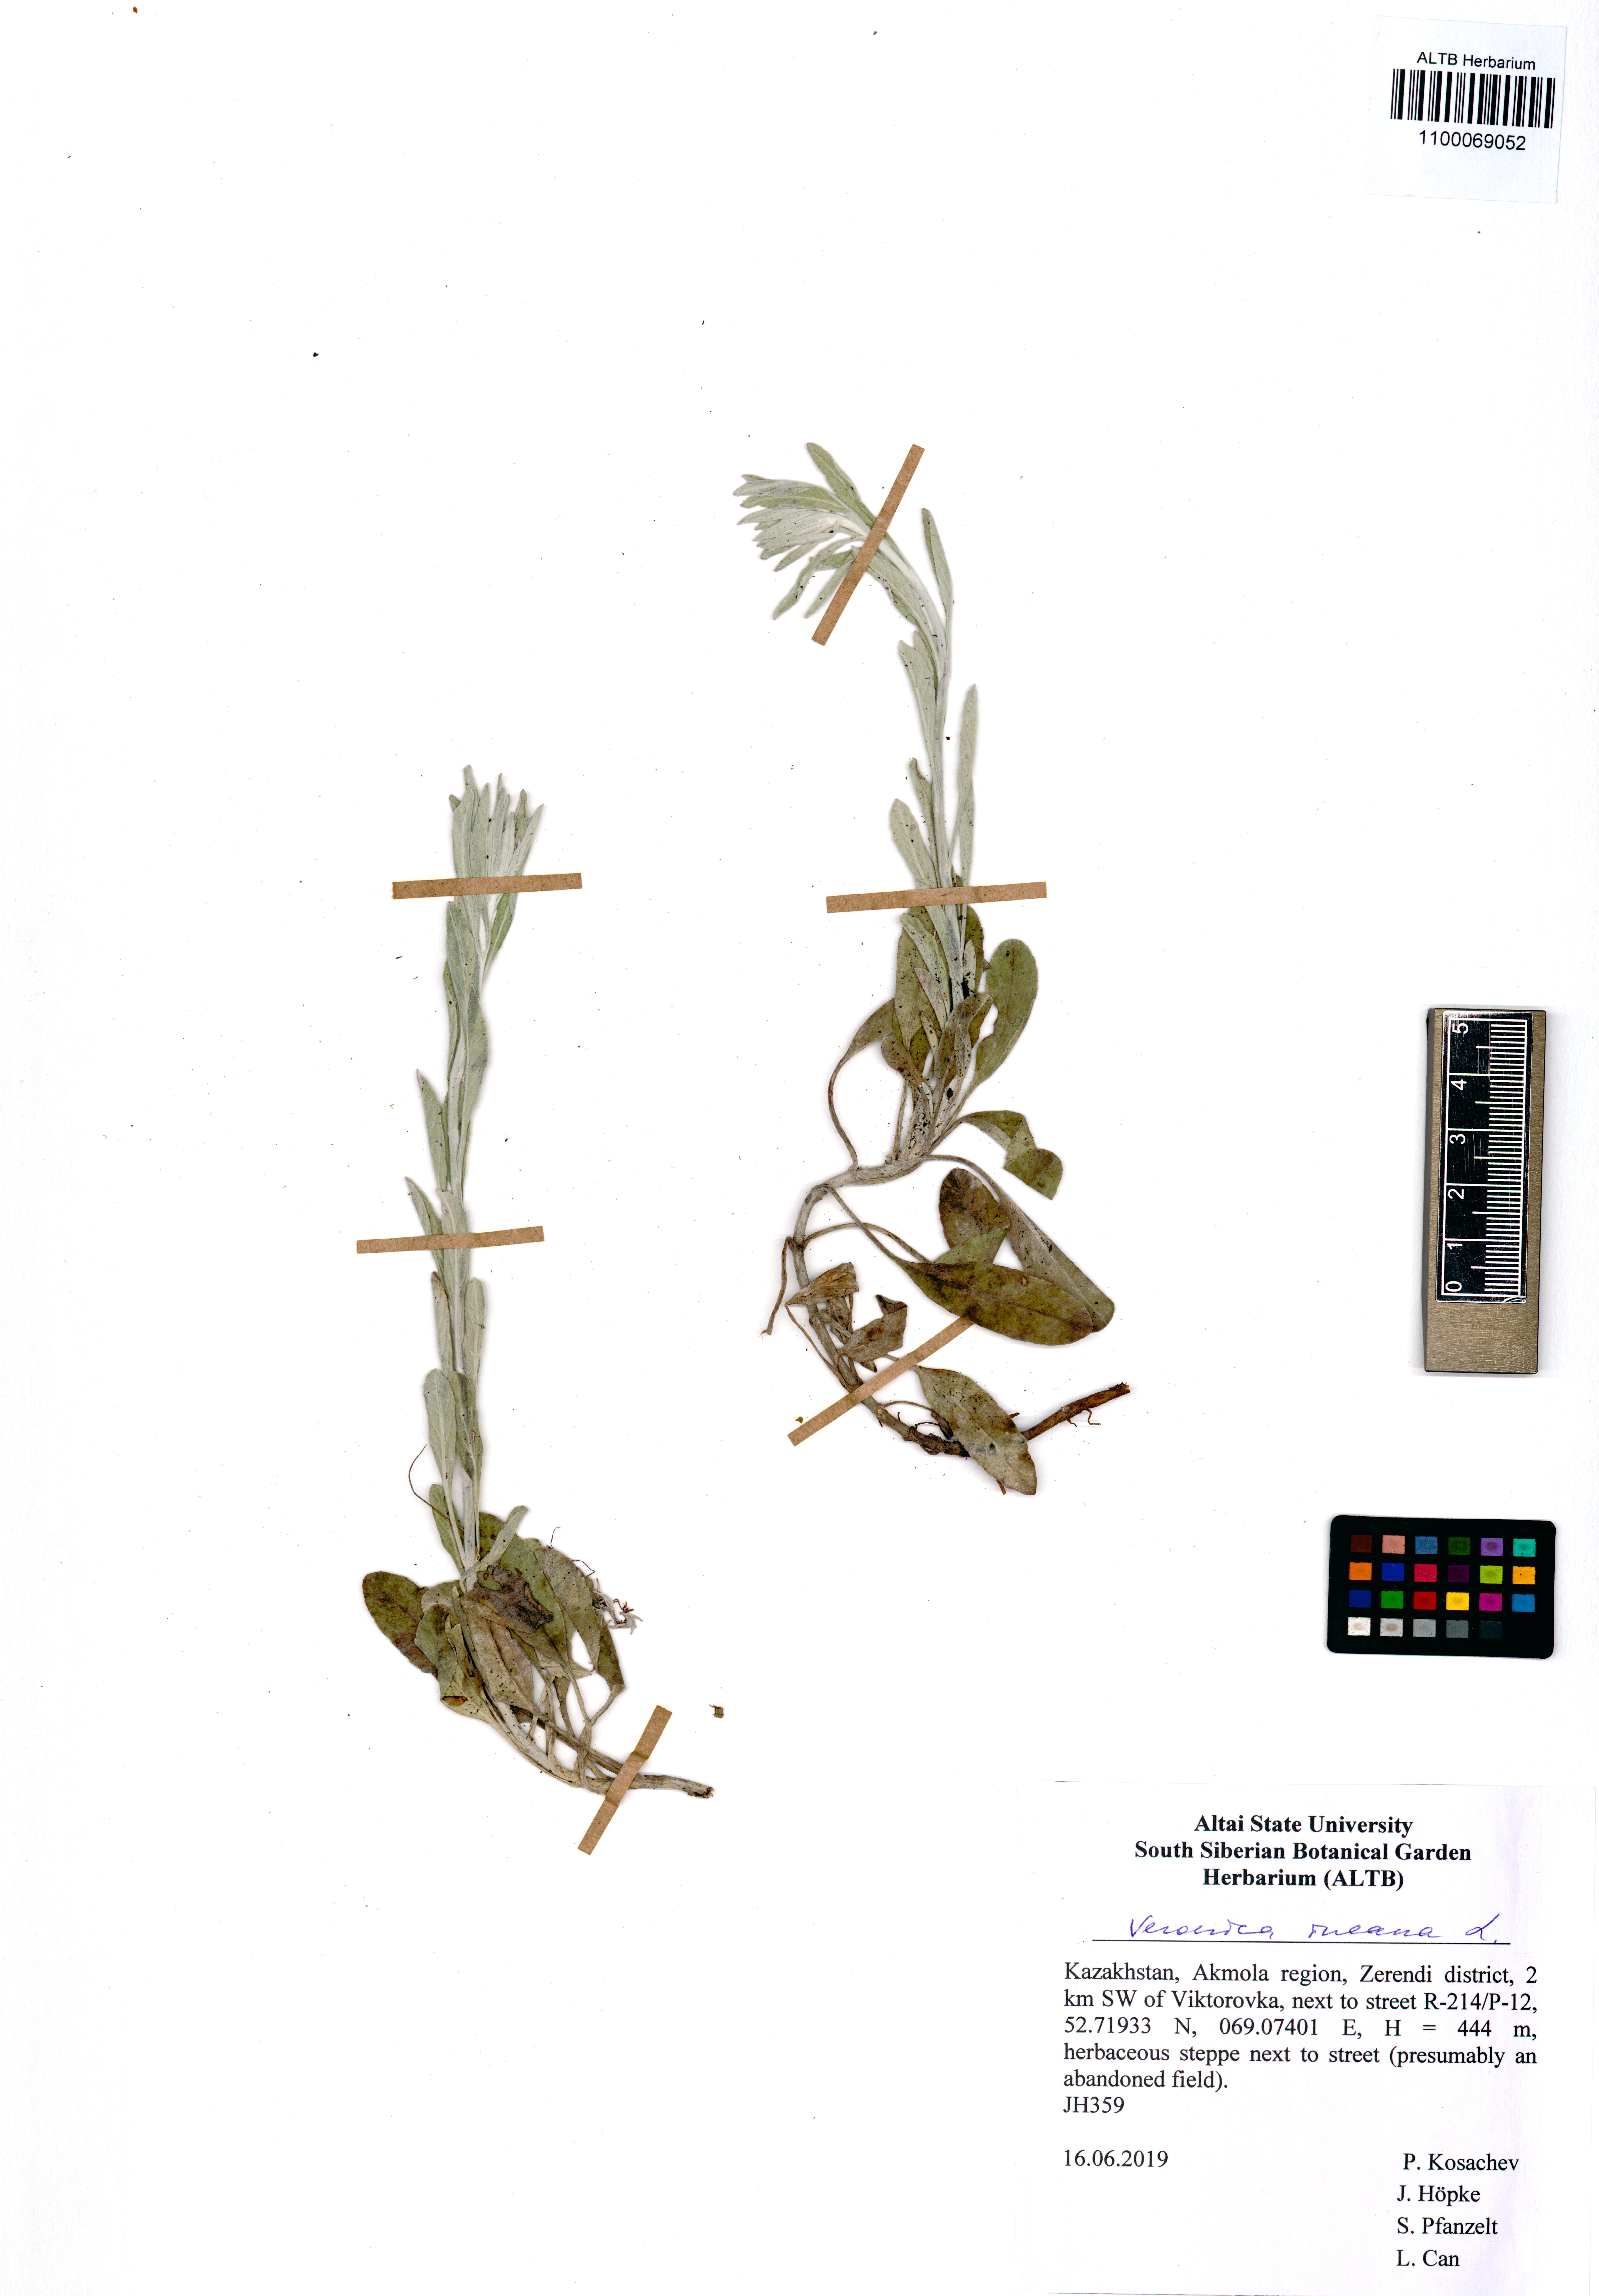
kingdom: Plantae
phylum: Tracheophyta
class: Magnoliopsida
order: Lamiales
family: Plantaginaceae
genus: Veronica
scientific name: Veronica incana
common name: Silver speedwell
